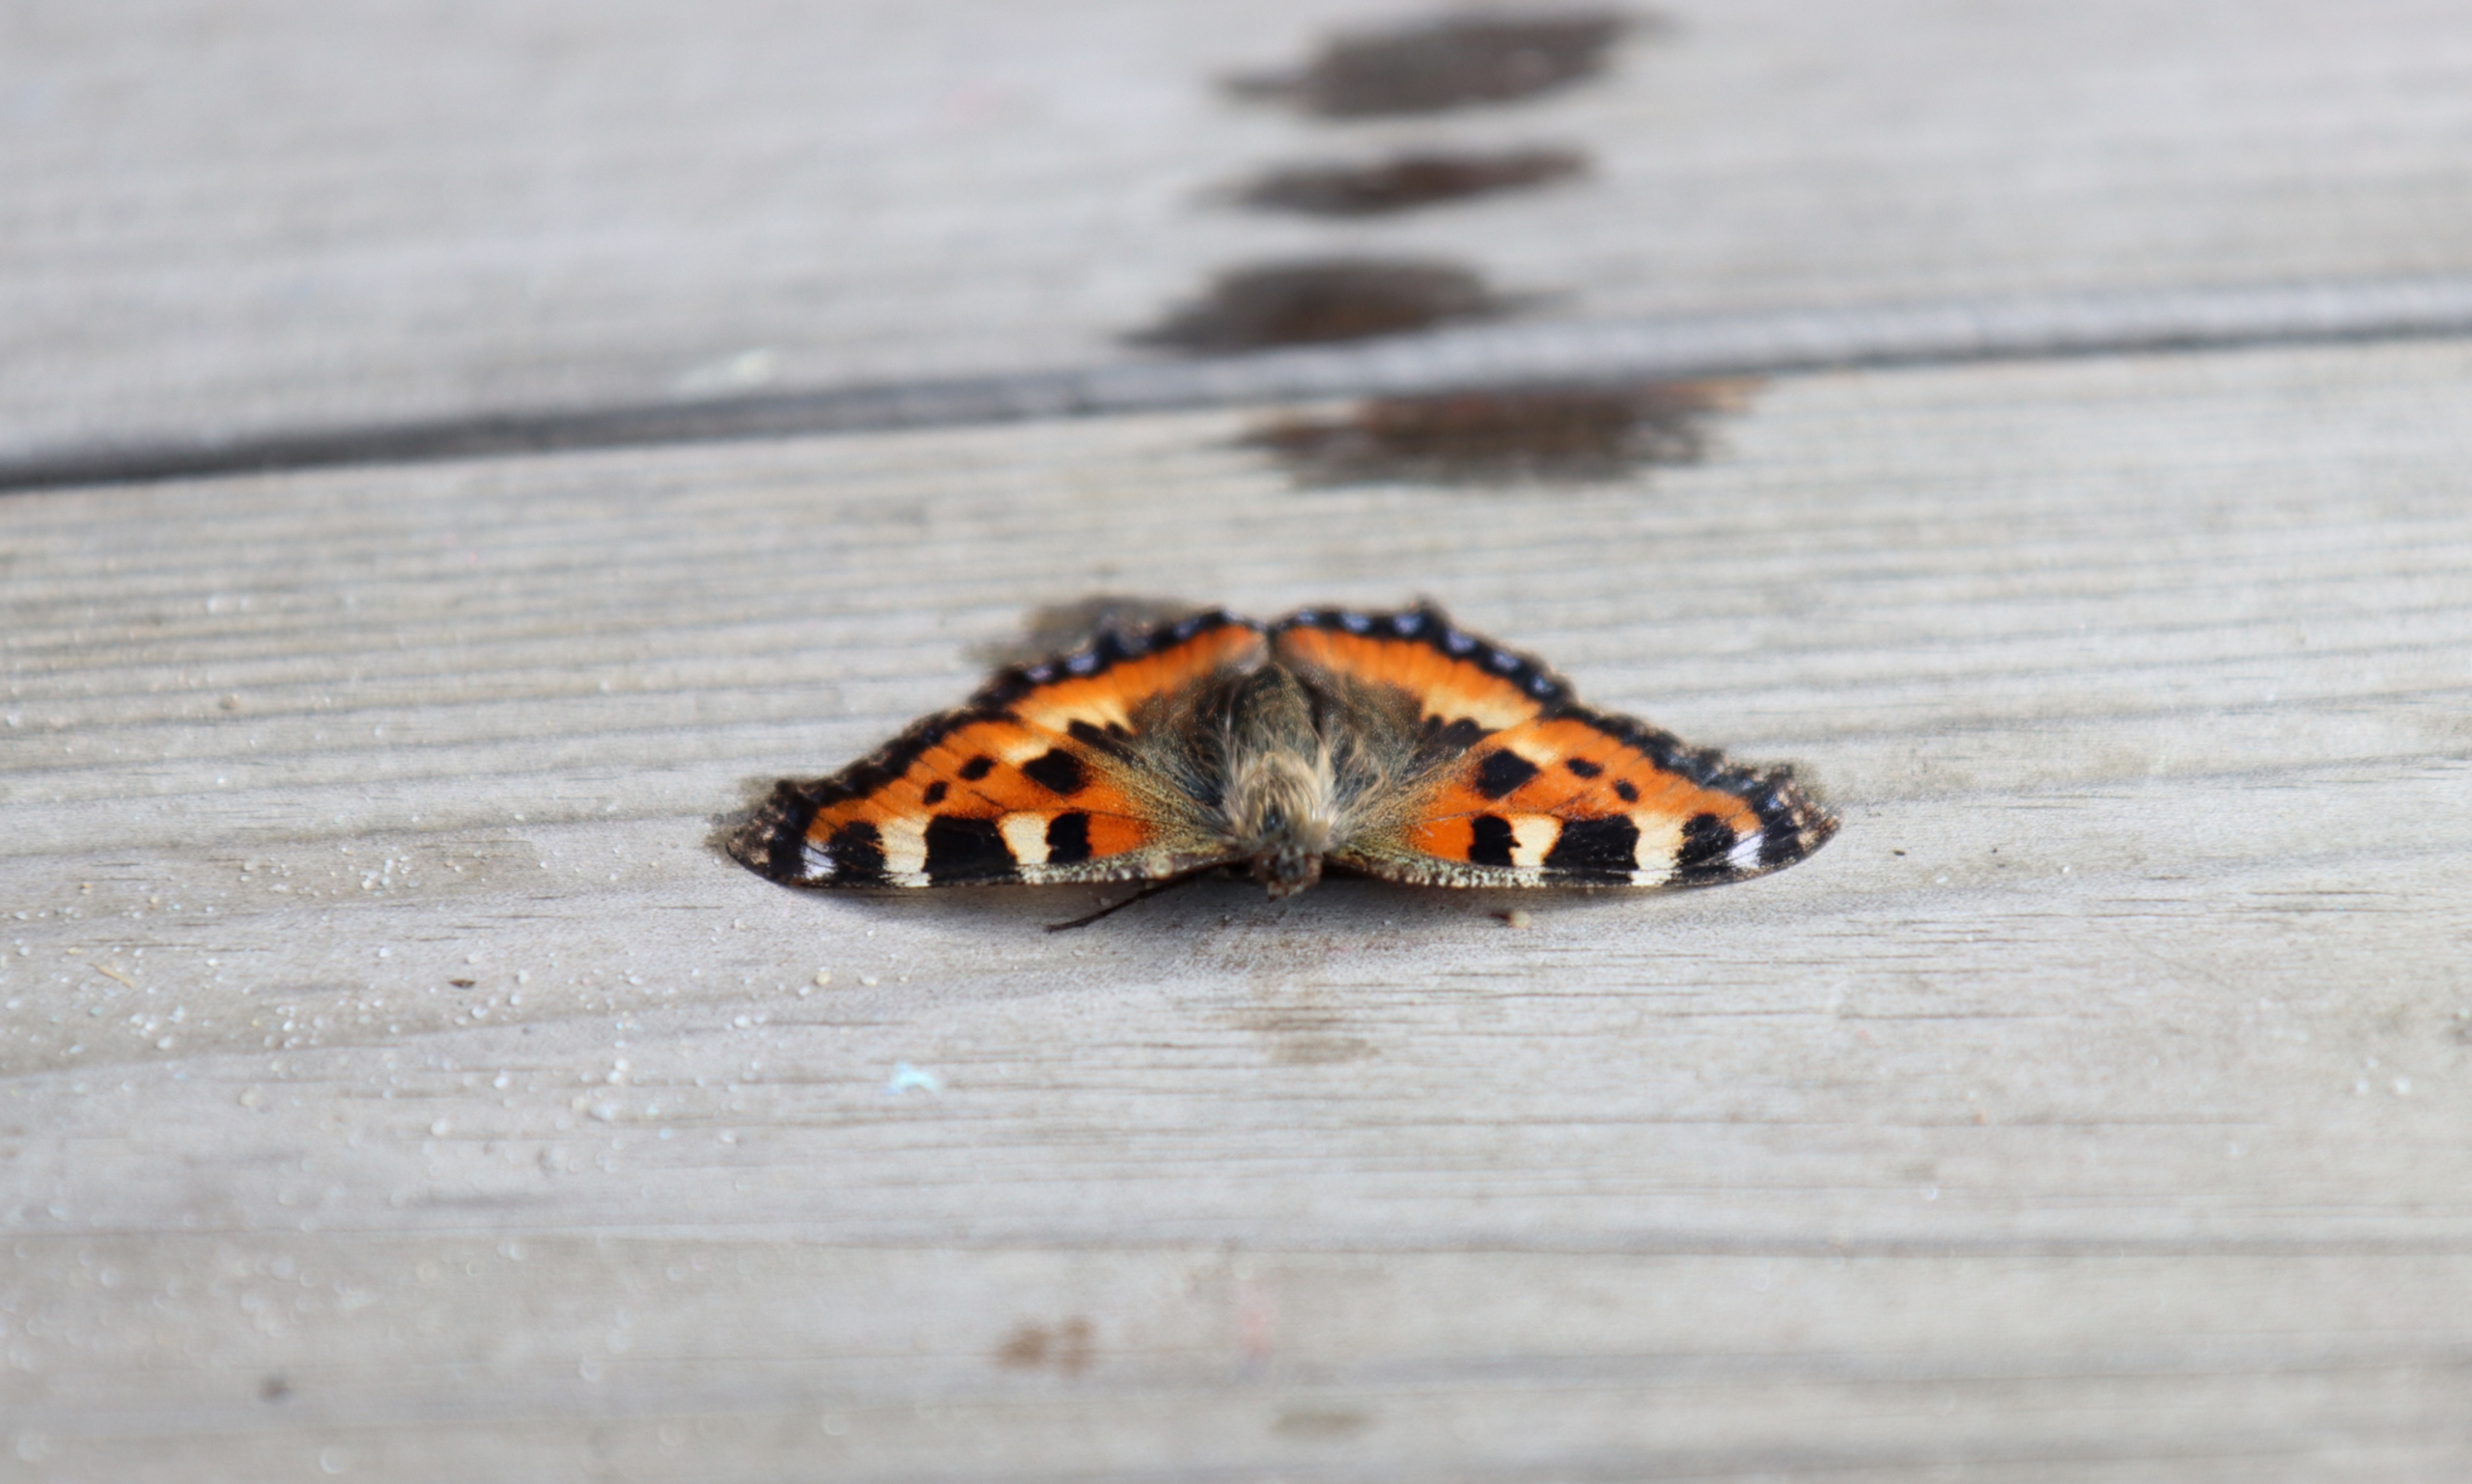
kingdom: Animalia
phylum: Arthropoda
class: Insecta
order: Lepidoptera
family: Nymphalidae
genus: Aglais
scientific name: Aglais urticae
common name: Nældens takvinge
